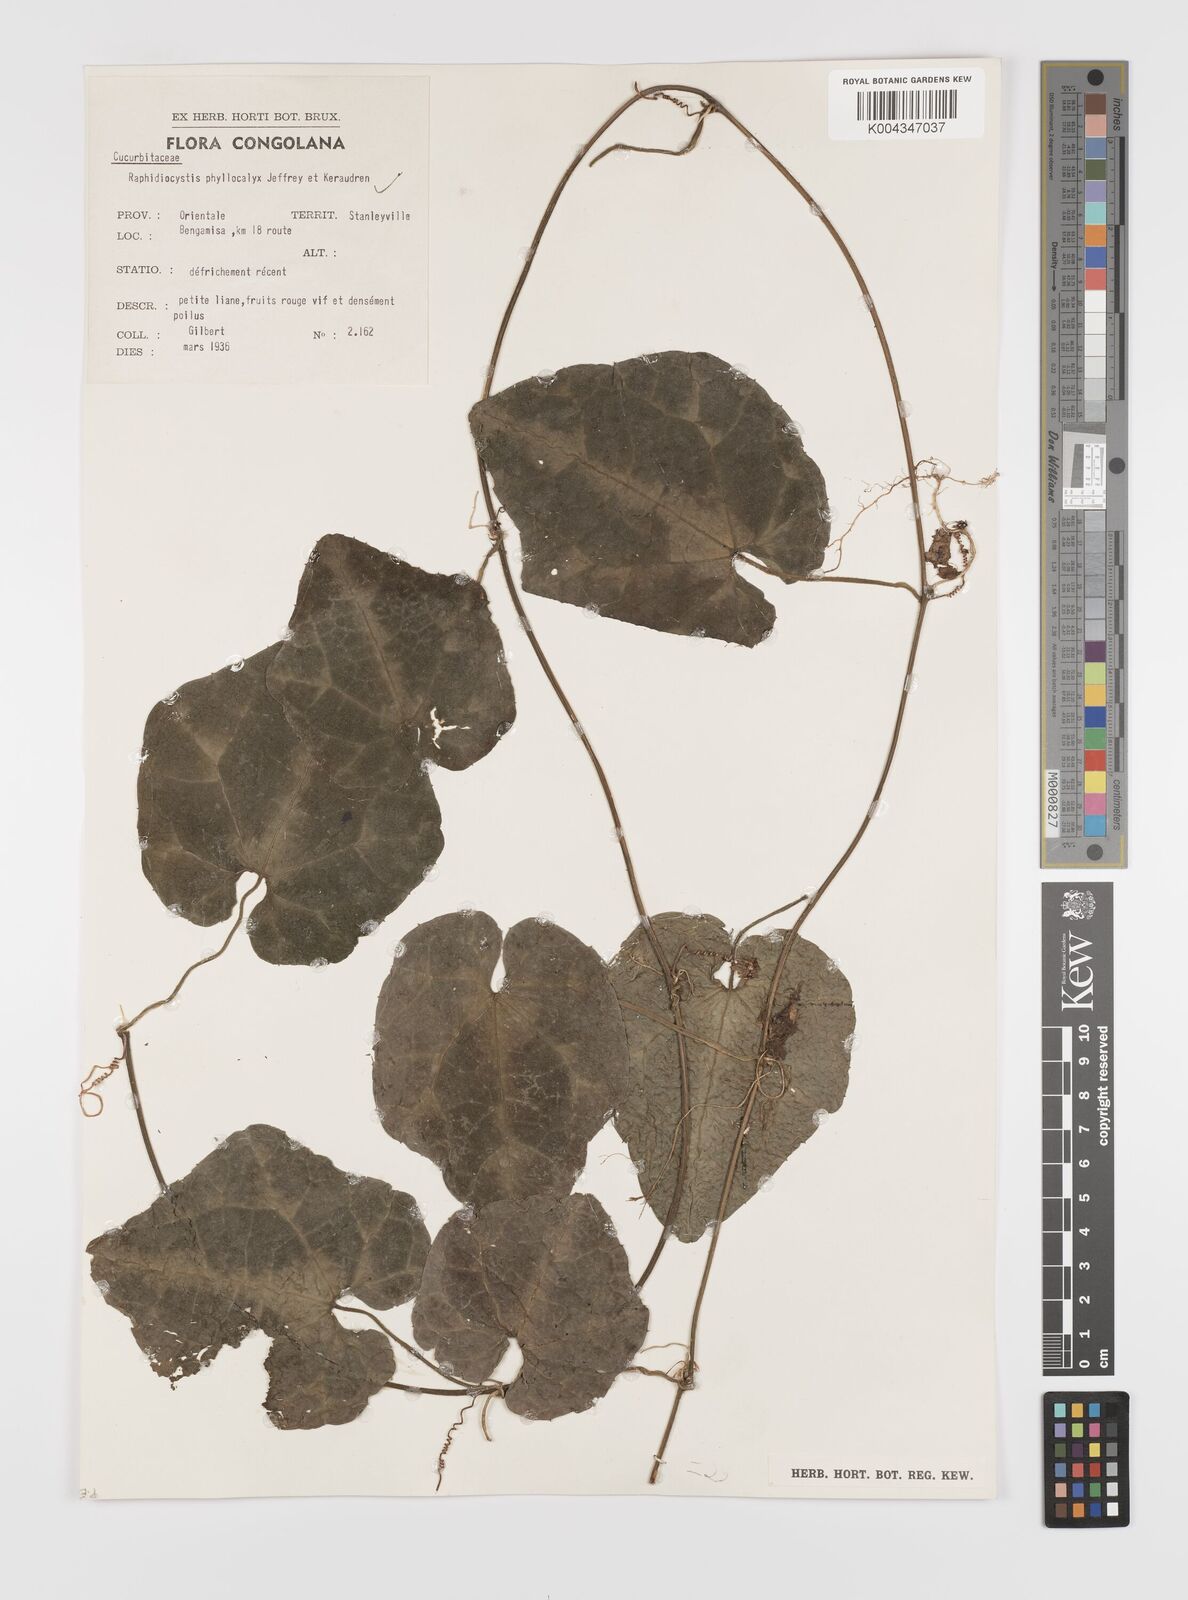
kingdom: Plantae
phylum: Tracheophyta
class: Magnoliopsida
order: Cucurbitales
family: Cucurbitaceae
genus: Raphidiocystis
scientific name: Raphidiocystis phyllocalyx
